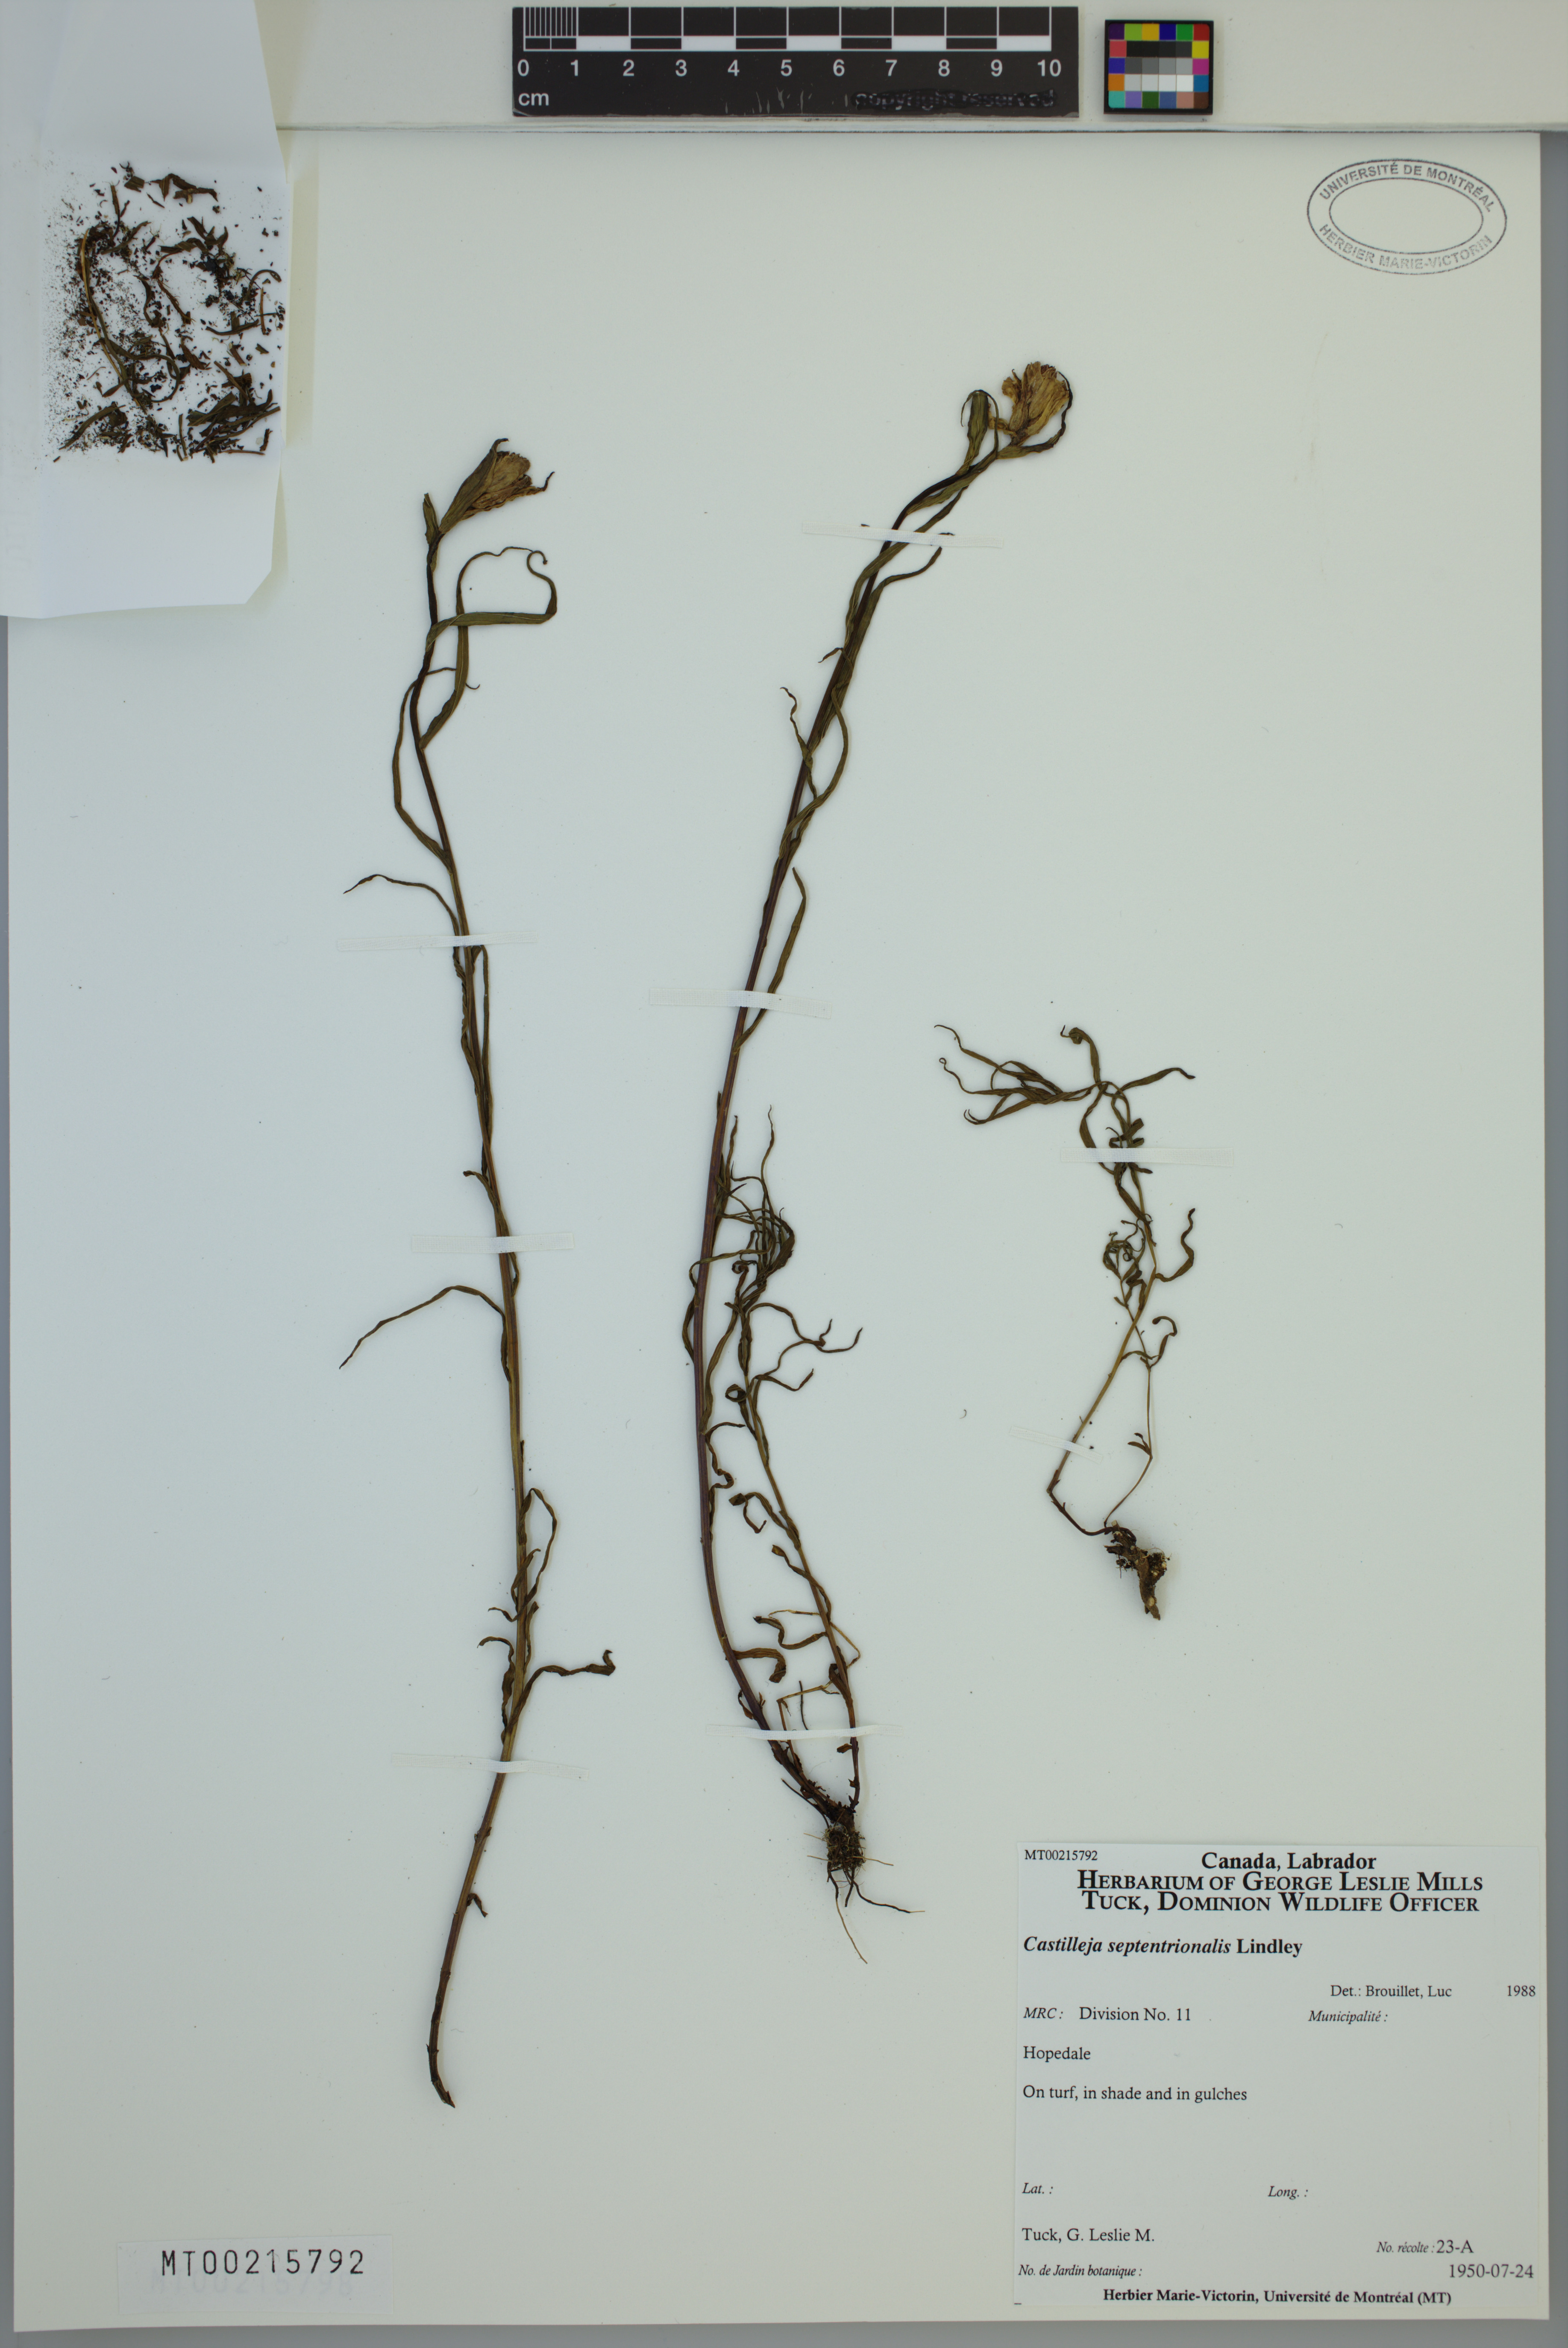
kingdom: Plantae
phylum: Tracheophyta
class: Magnoliopsida
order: Lamiales
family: Orobanchaceae
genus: Castilleja
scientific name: Castilleja septentrionalis
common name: Northeastern paintbrush
